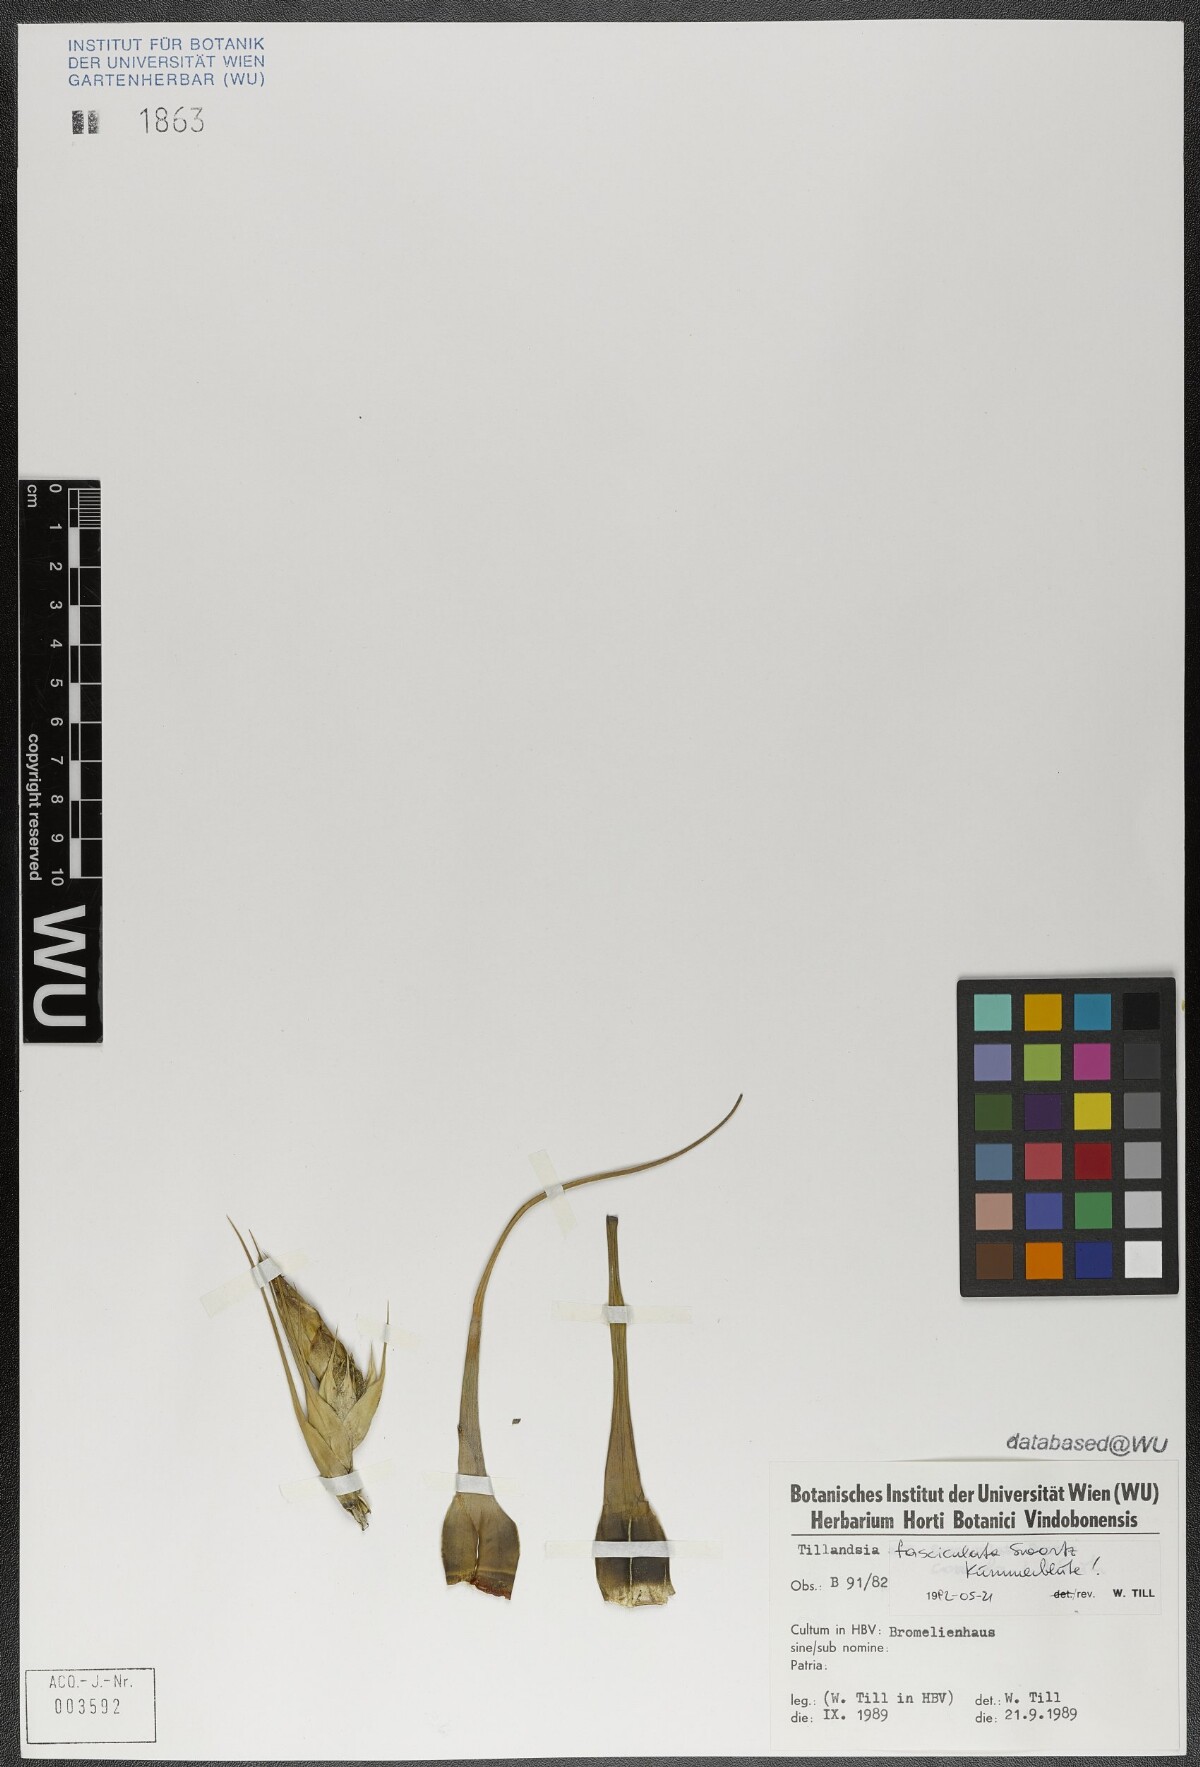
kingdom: Plantae
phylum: Tracheophyta
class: Liliopsida
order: Poales
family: Bromeliaceae
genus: Tillandsia
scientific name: Tillandsia fasciculata
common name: Giant airplant
